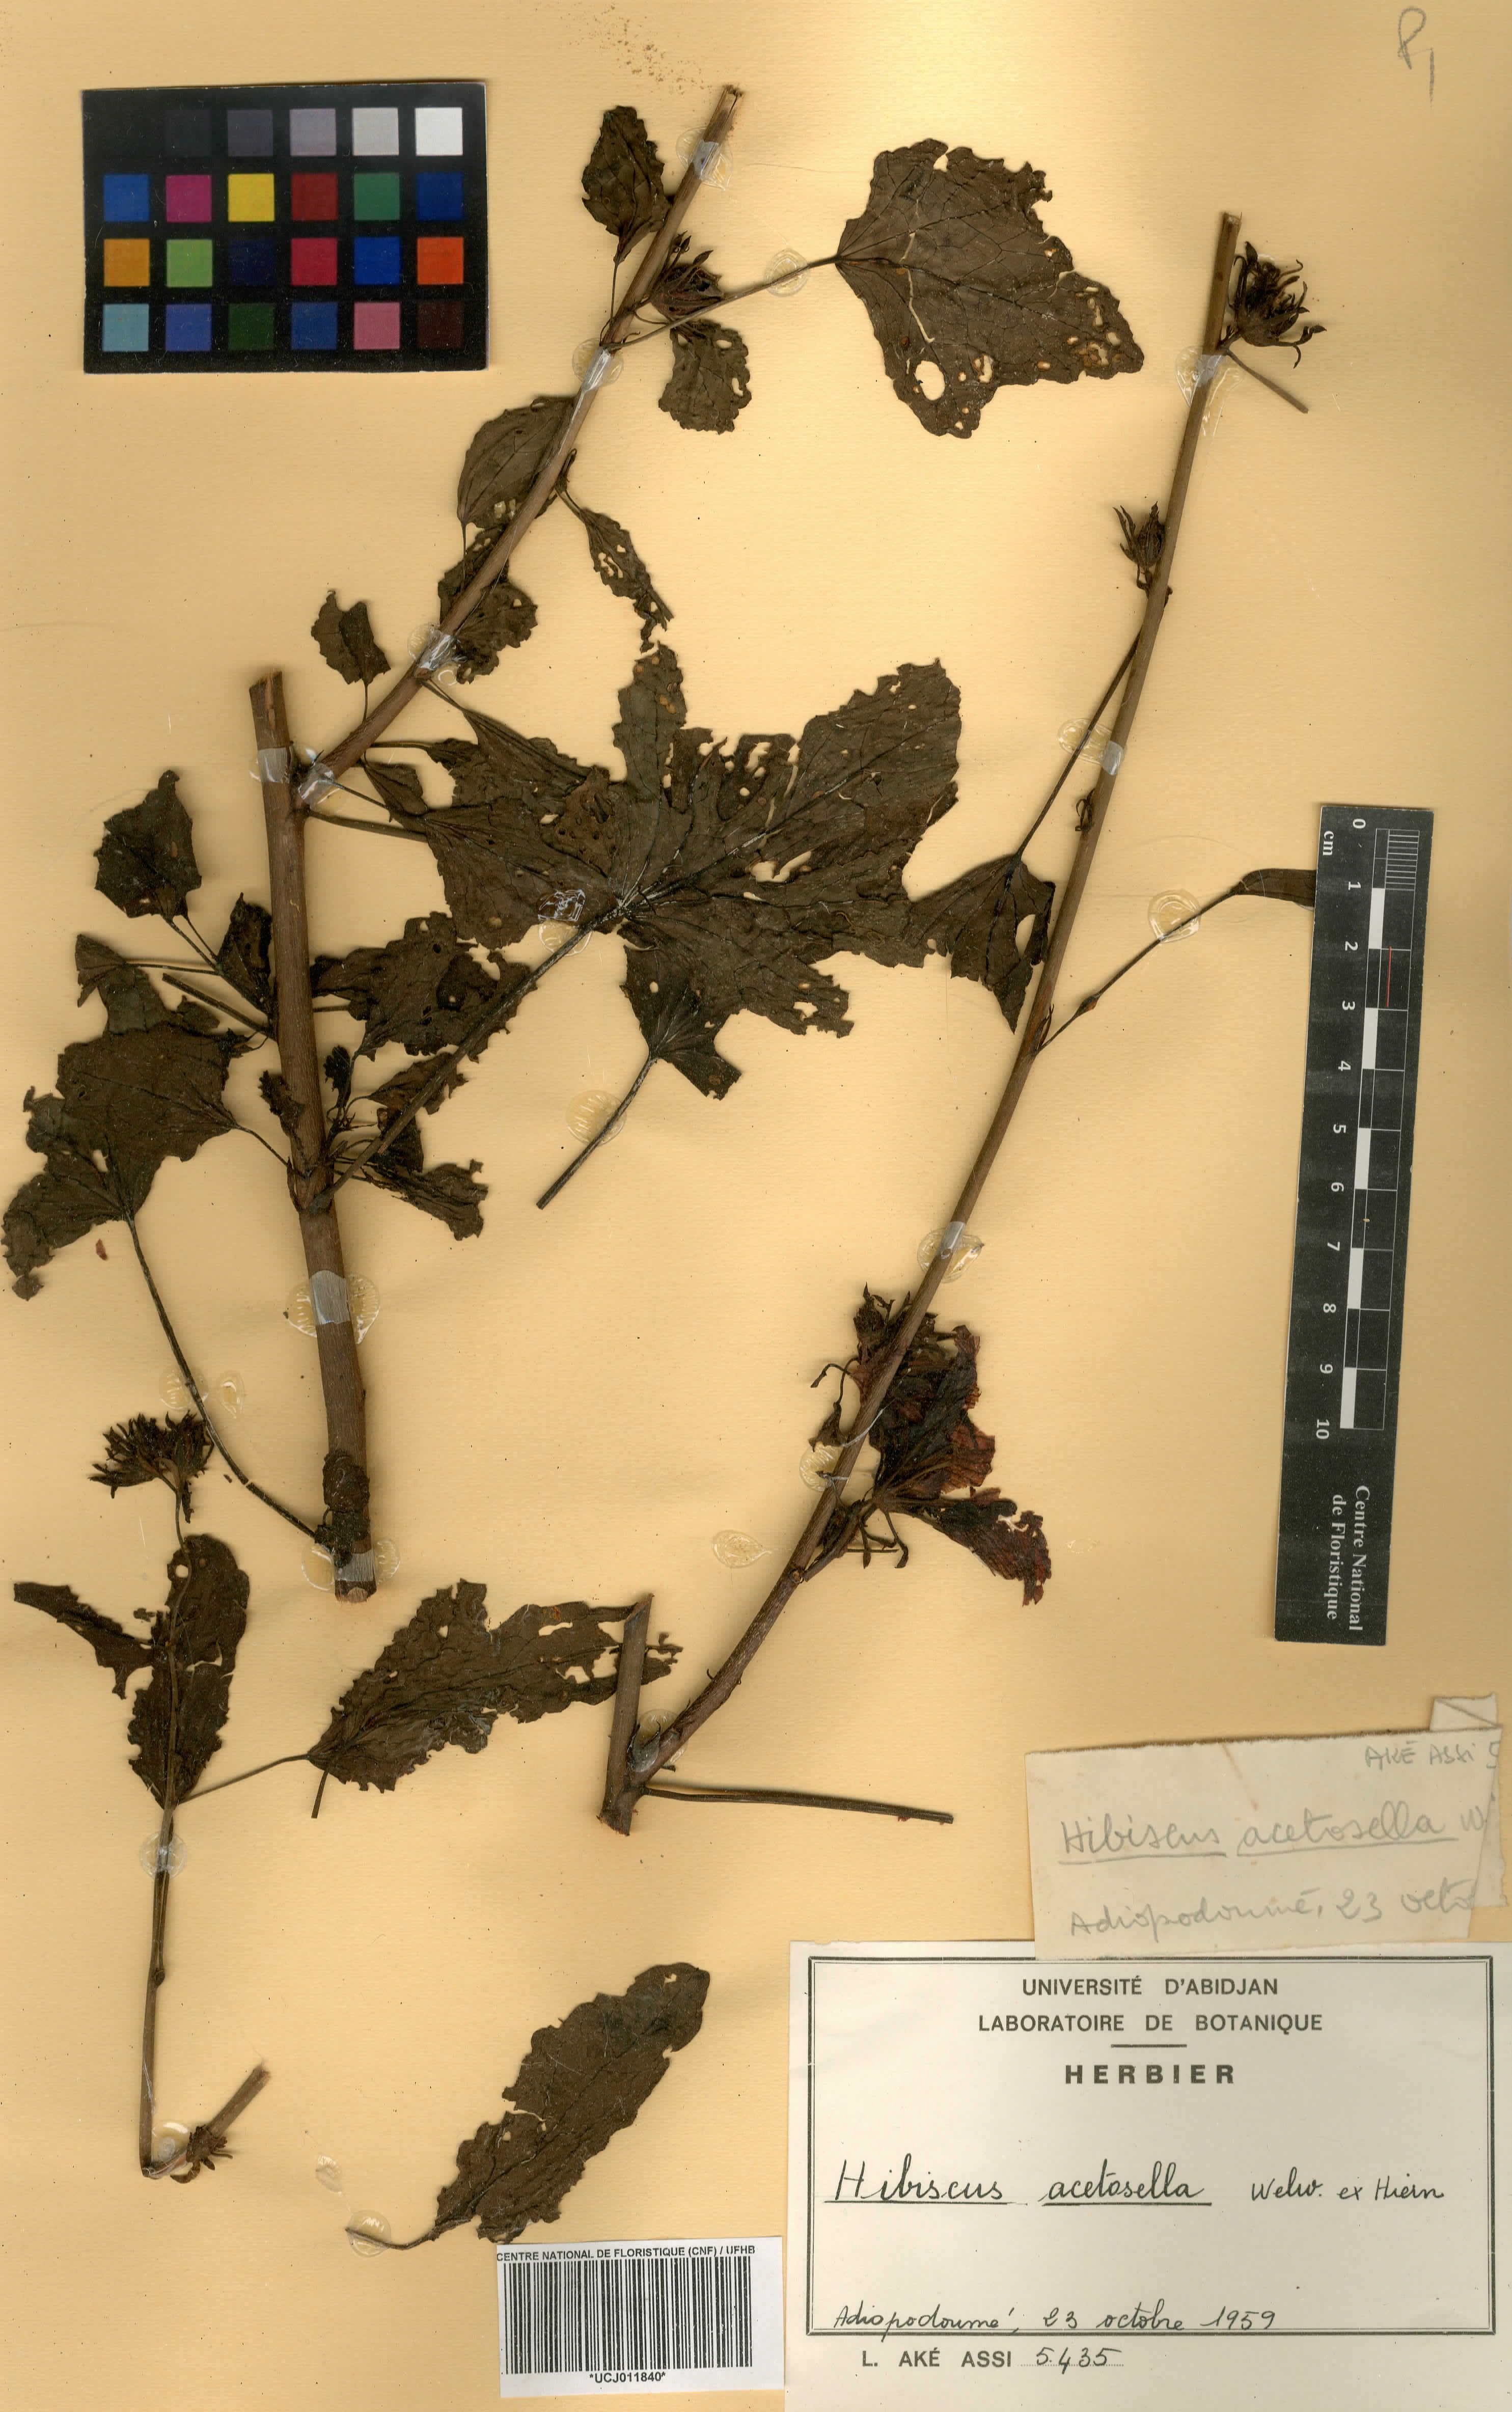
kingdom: Plantae
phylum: Tracheophyta
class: Magnoliopsida
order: Malvales
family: Malvaceae
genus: Hibiscus
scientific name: Hibiscus acetosella
